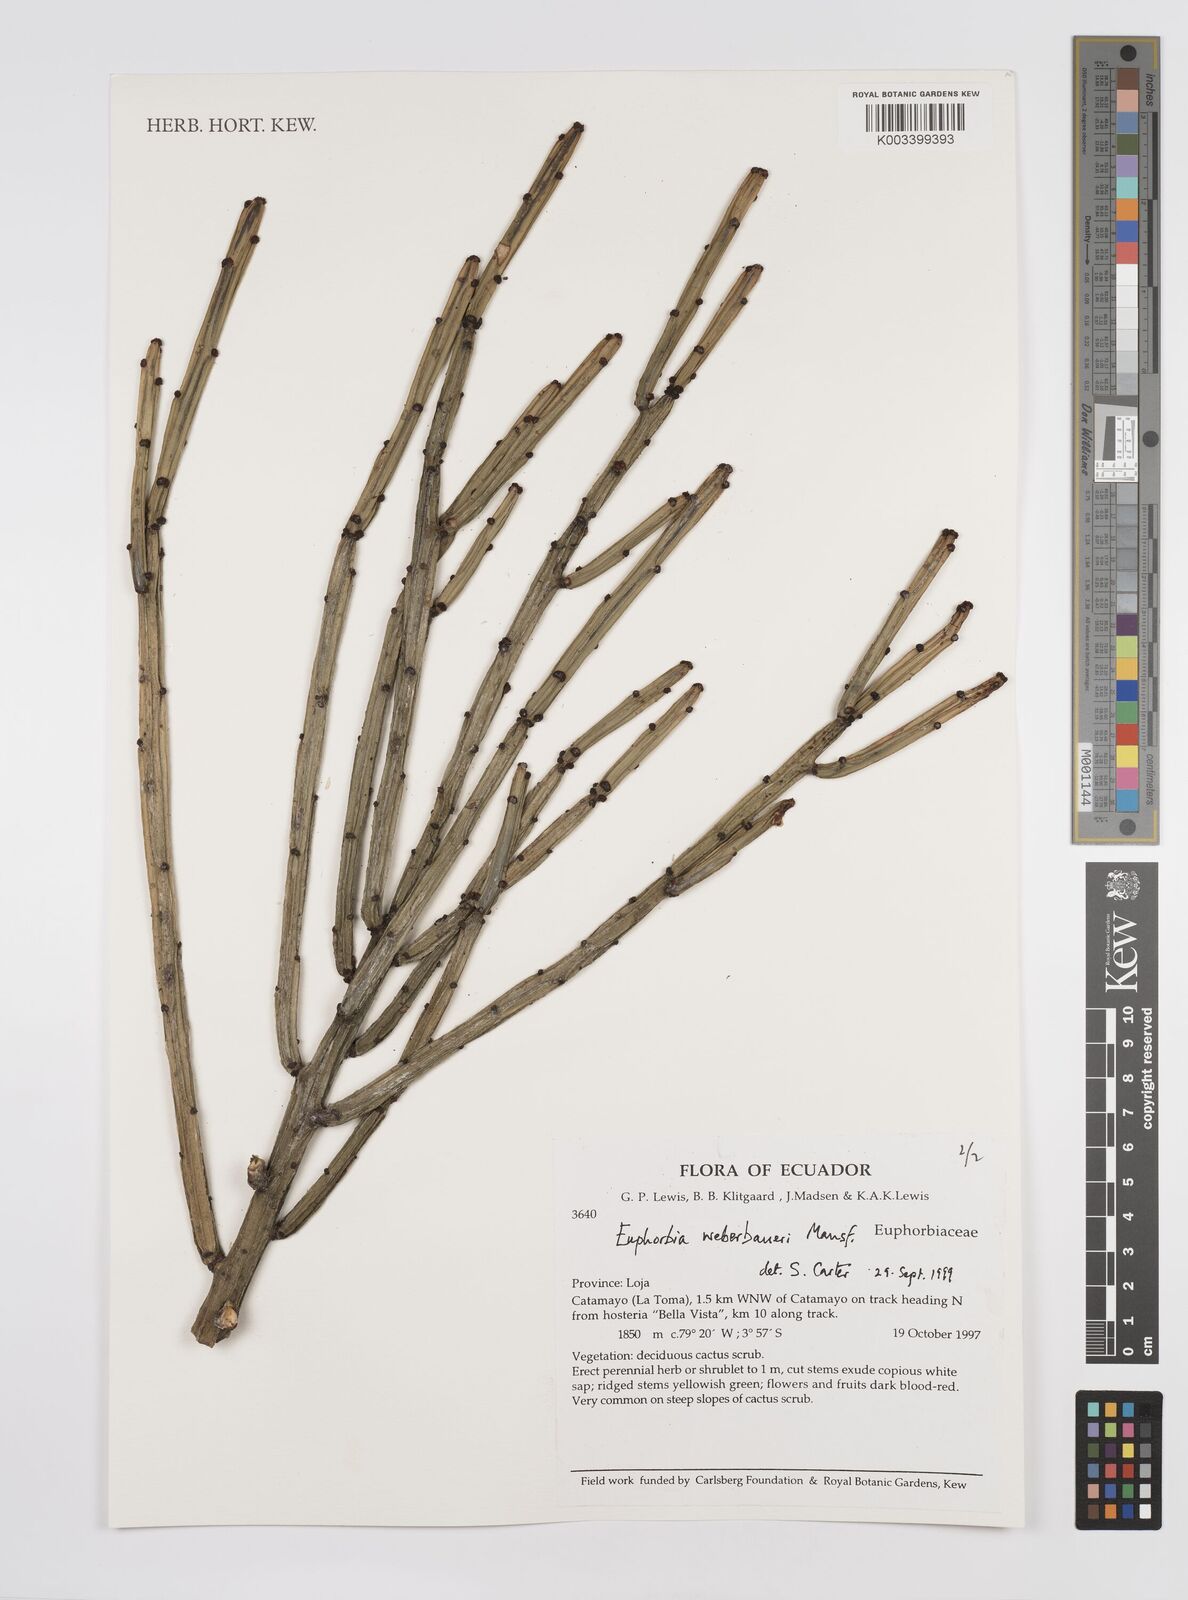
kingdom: Plantae
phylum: Tracheophyta
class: Magnoliopsida
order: Malpighiales
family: Euphorbiaceae
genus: Euphorbia
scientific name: Euphorbia weberbaueri
